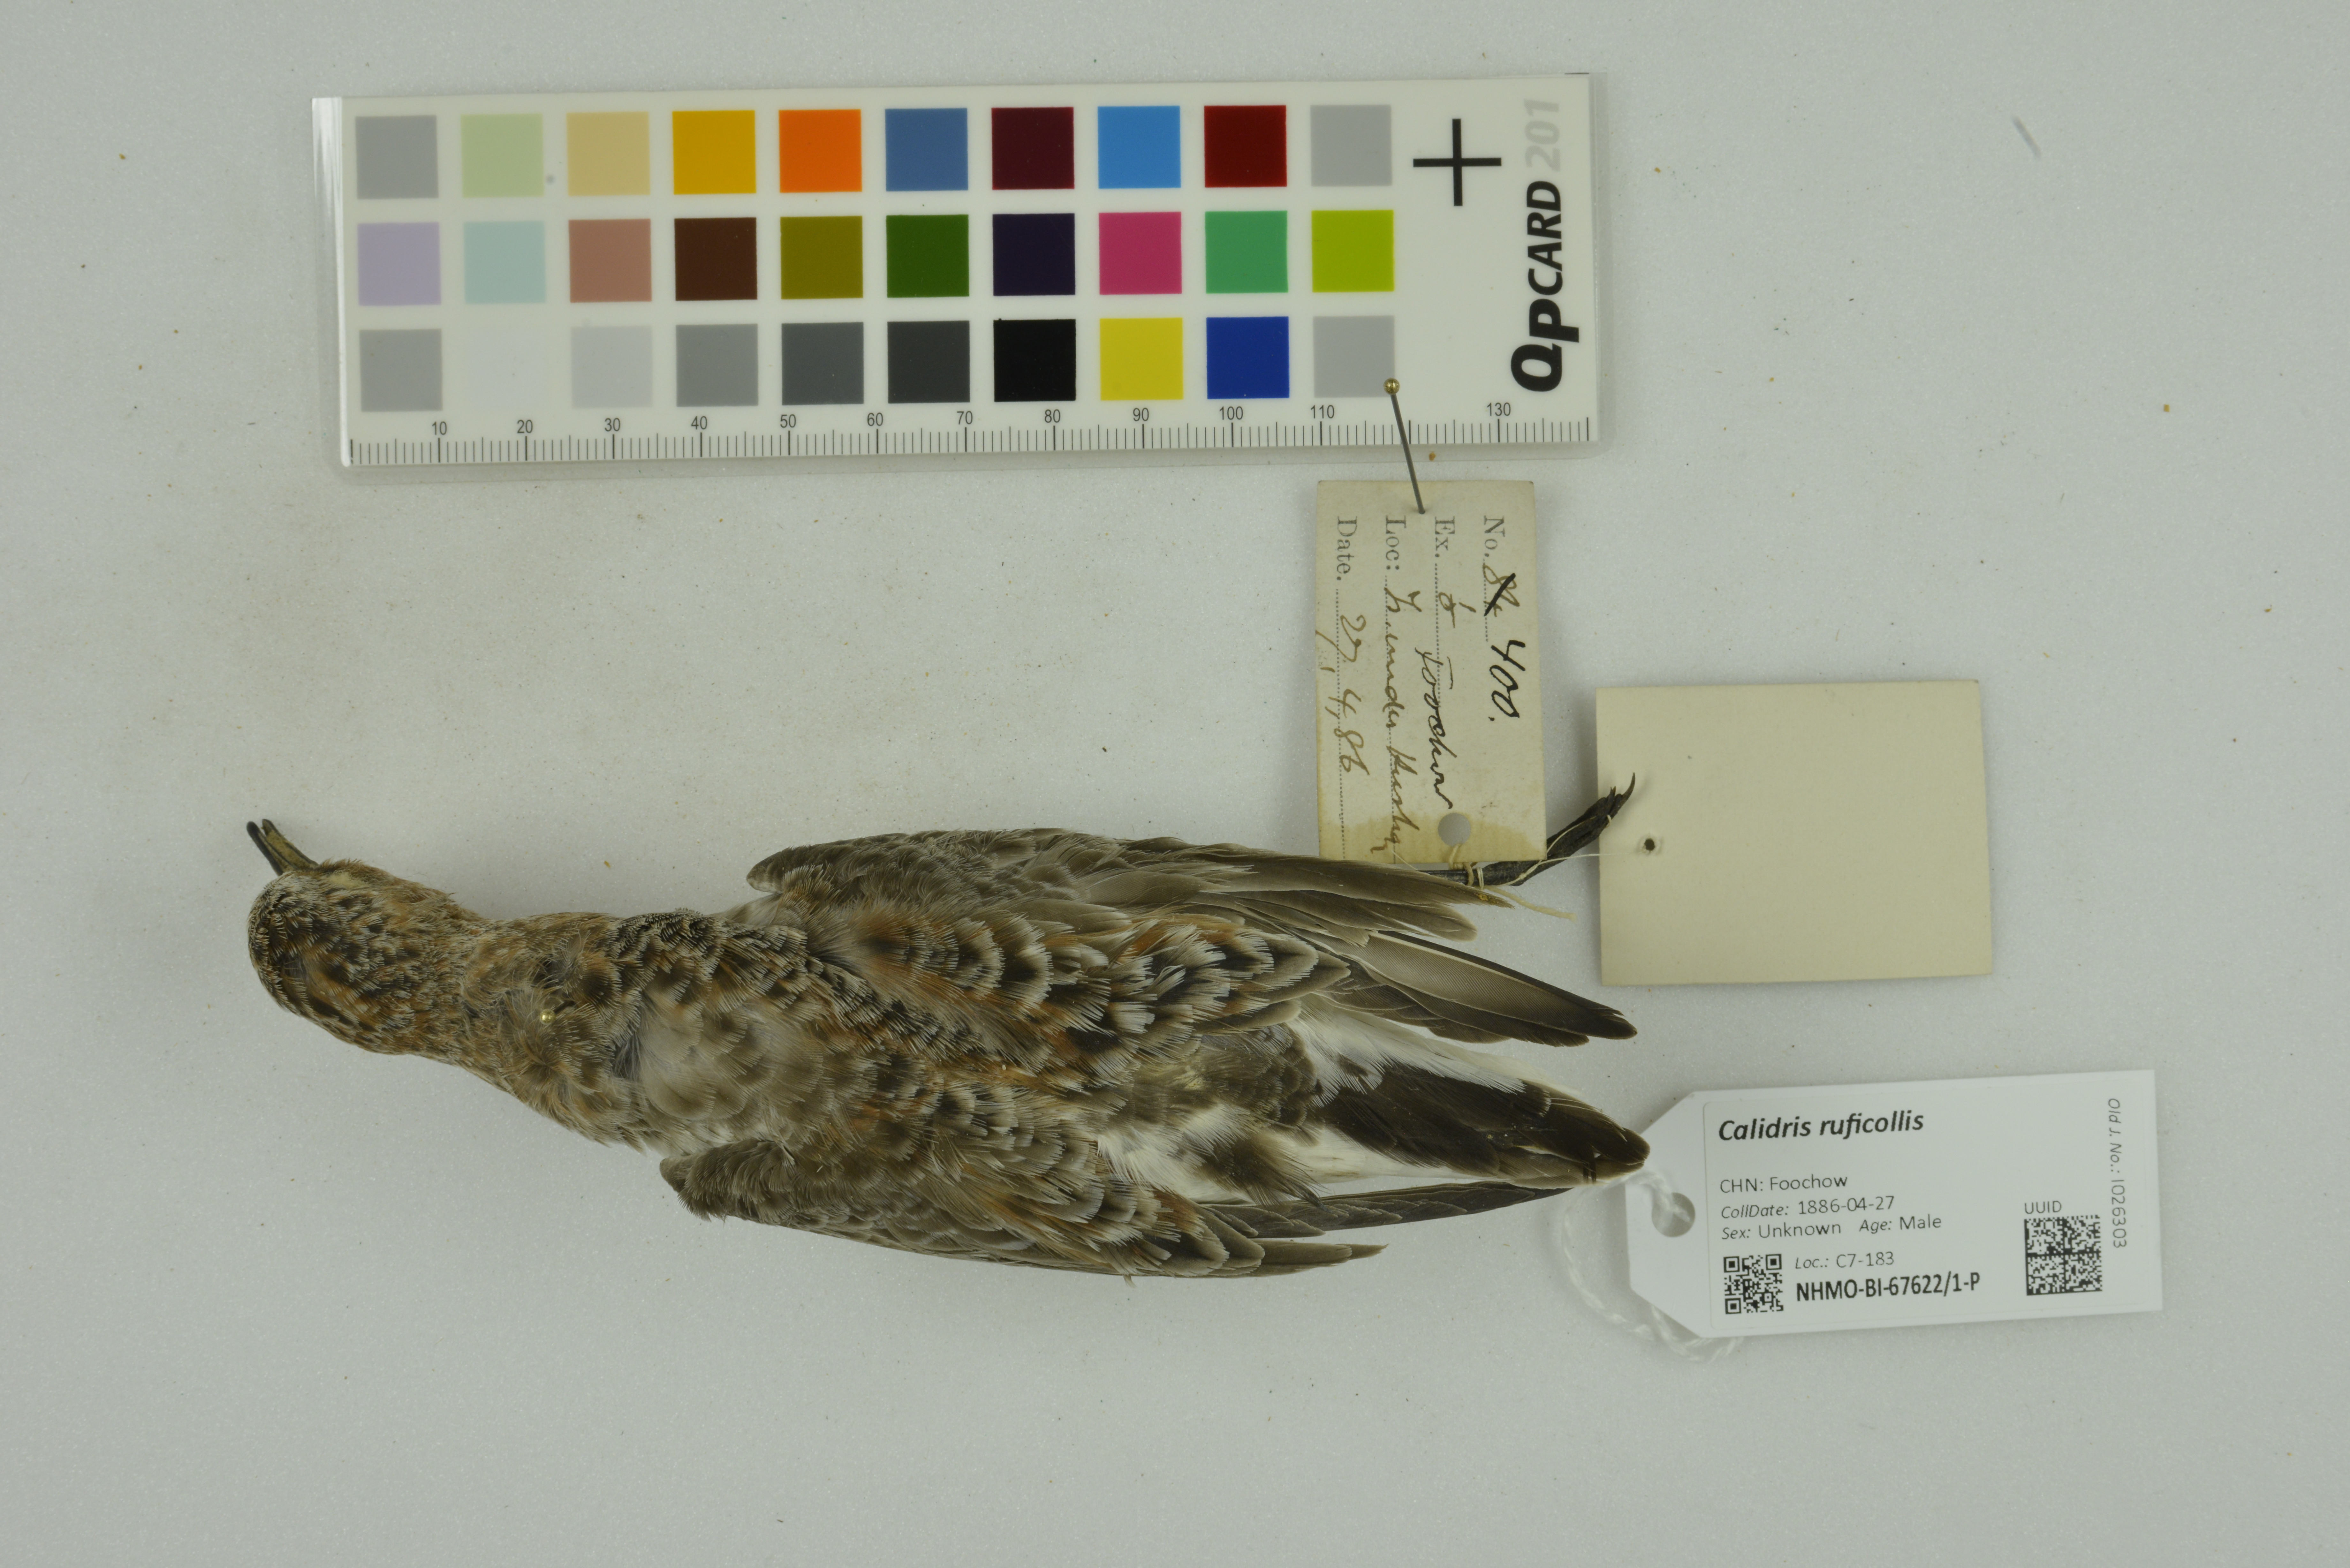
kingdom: Animalia
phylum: Chordata
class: Aves
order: Charadriiformes
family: Scolopacidae
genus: Calidris
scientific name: Calidris ruficollis
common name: Red-necked stint
